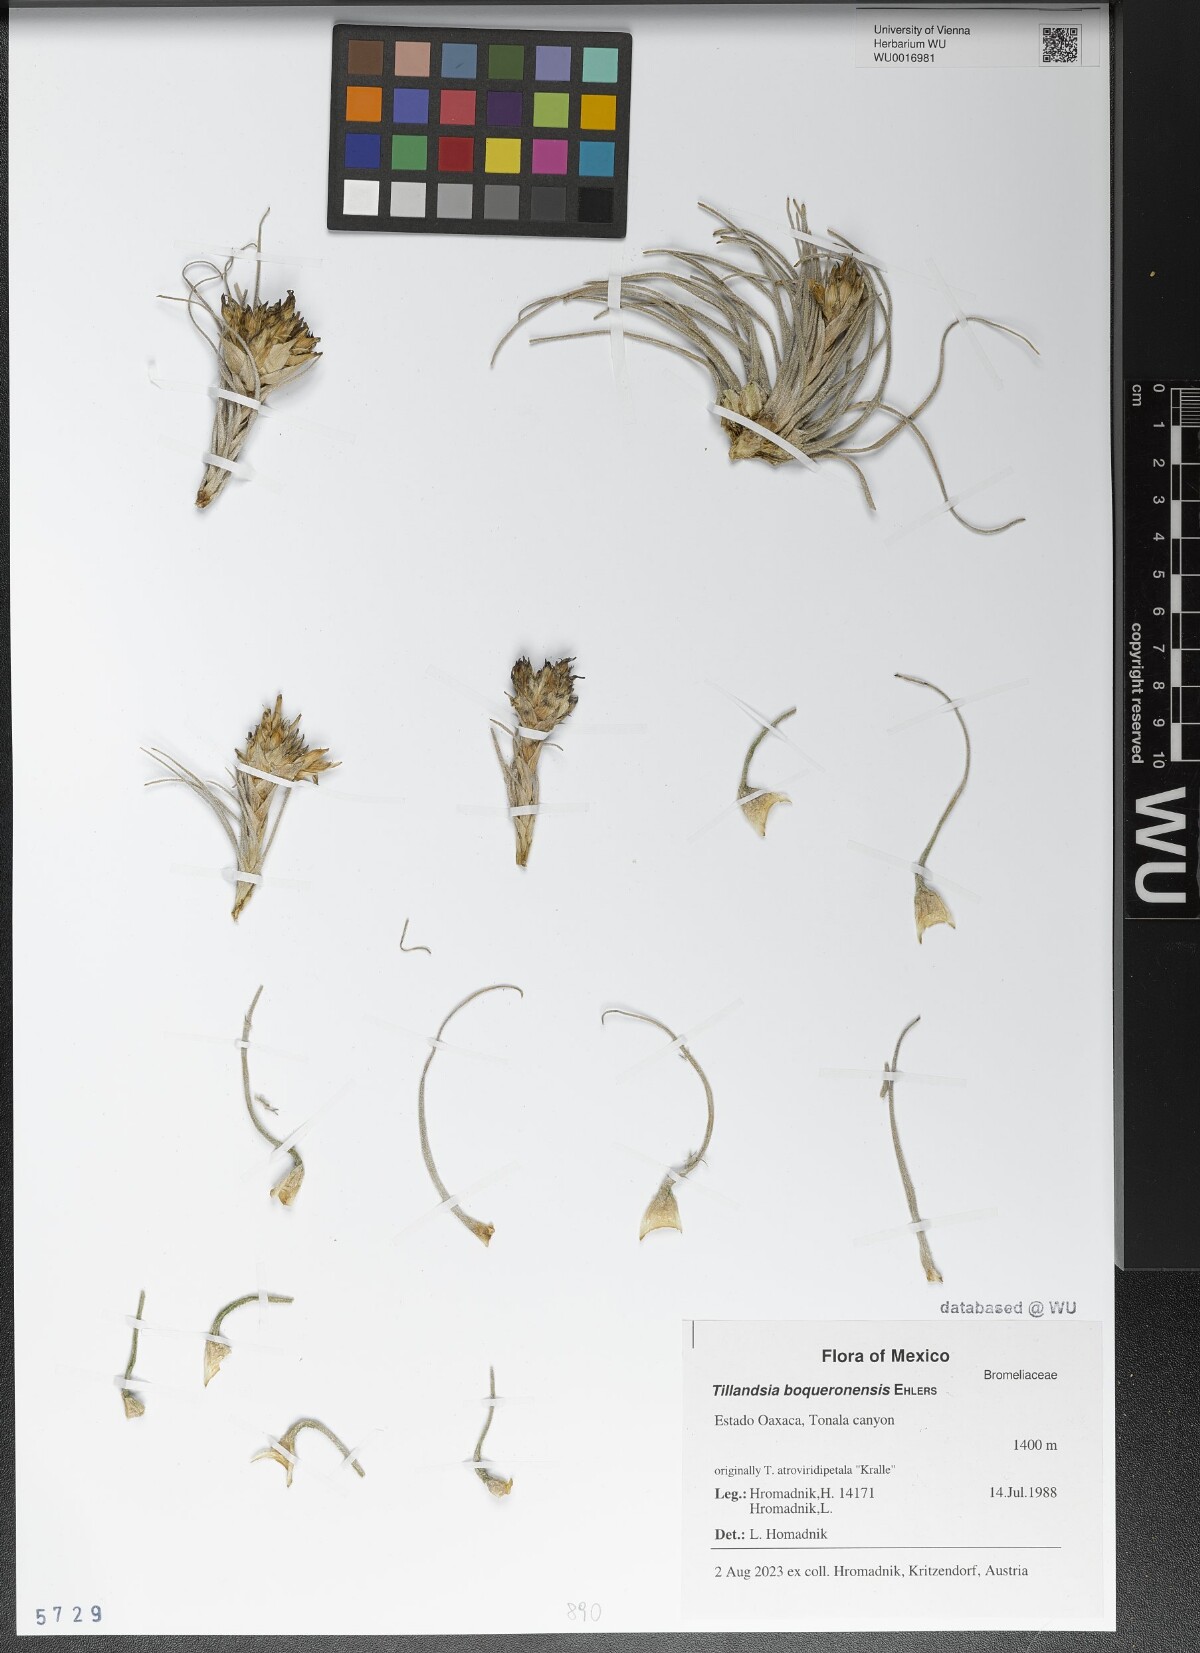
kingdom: Plantae
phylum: Tracheophyta
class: Liliopsida
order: Poales
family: Bromeliaceae
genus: Tillandsia
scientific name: Tillandsia boqueronensis
